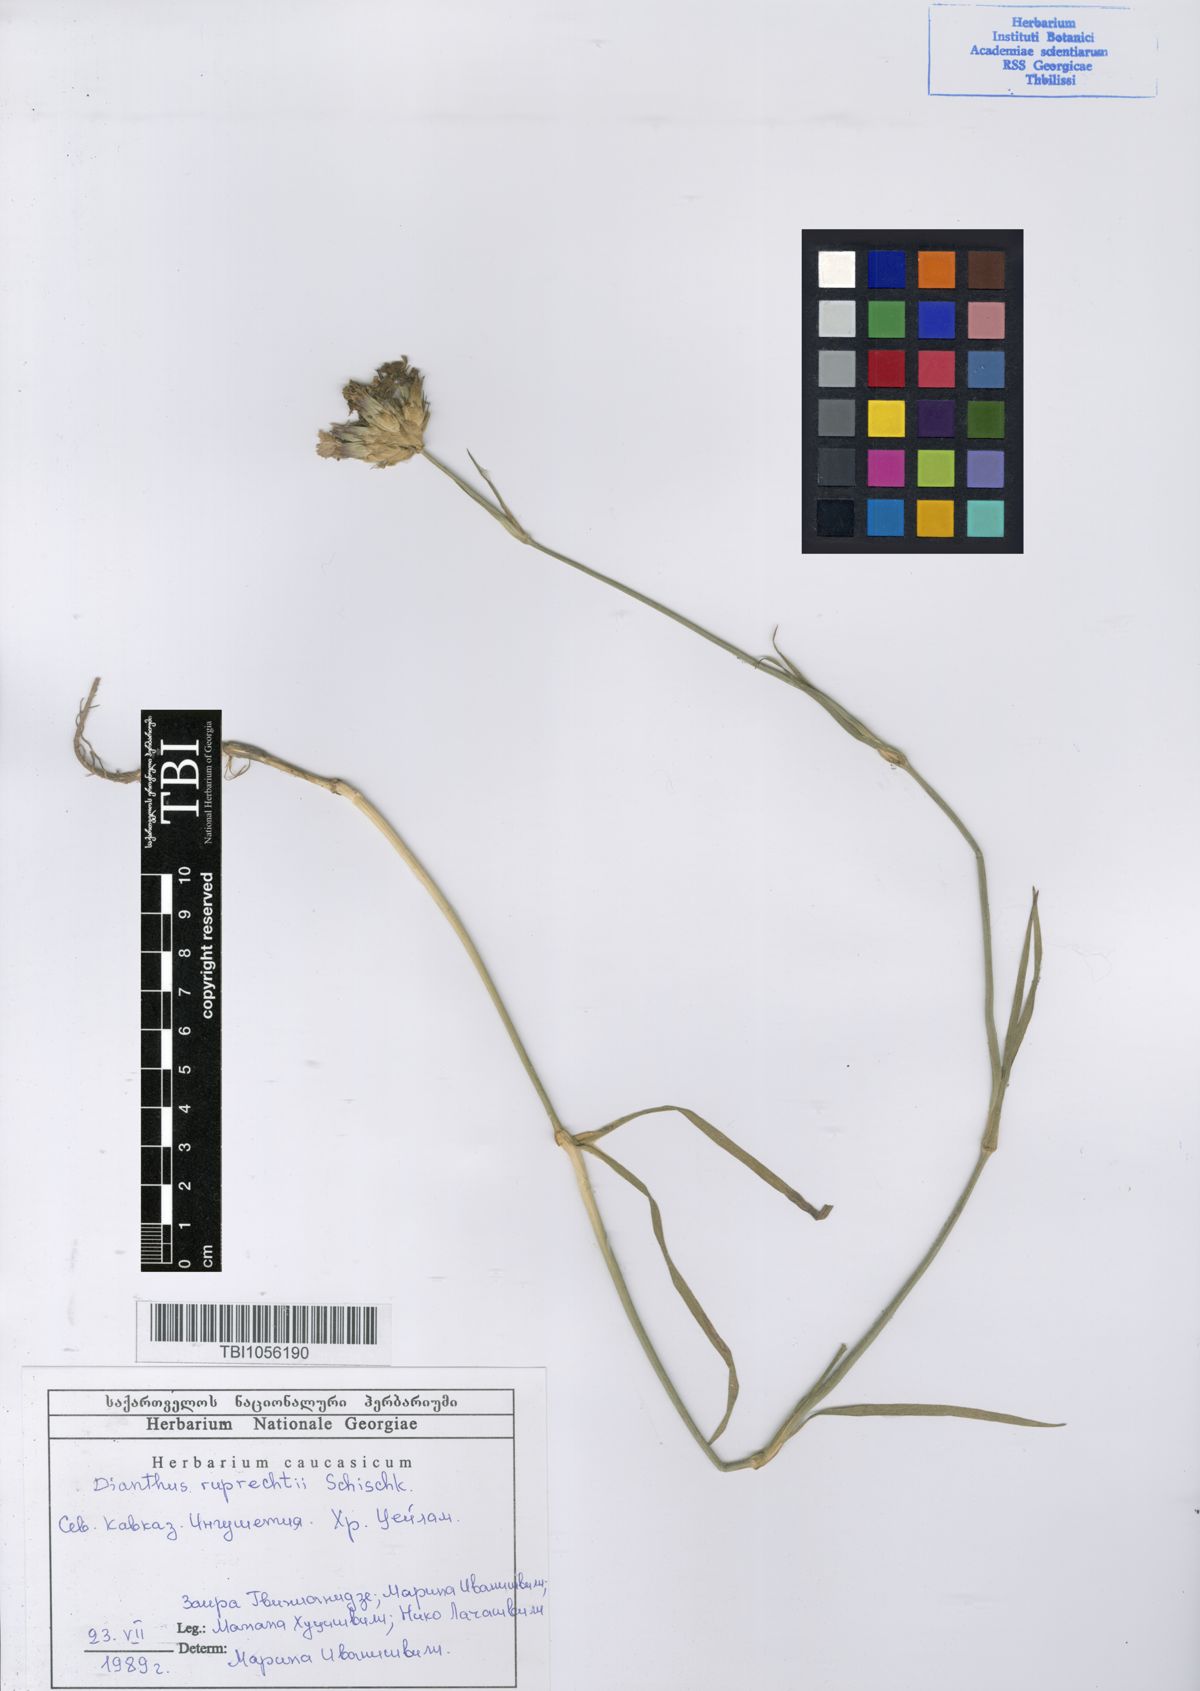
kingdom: Plantae
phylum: Tracheophyta
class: Magnoliopsida
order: Caryophyllales
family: Caryophyllaceae
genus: Dianthus
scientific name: Dianthus ruprechtii
